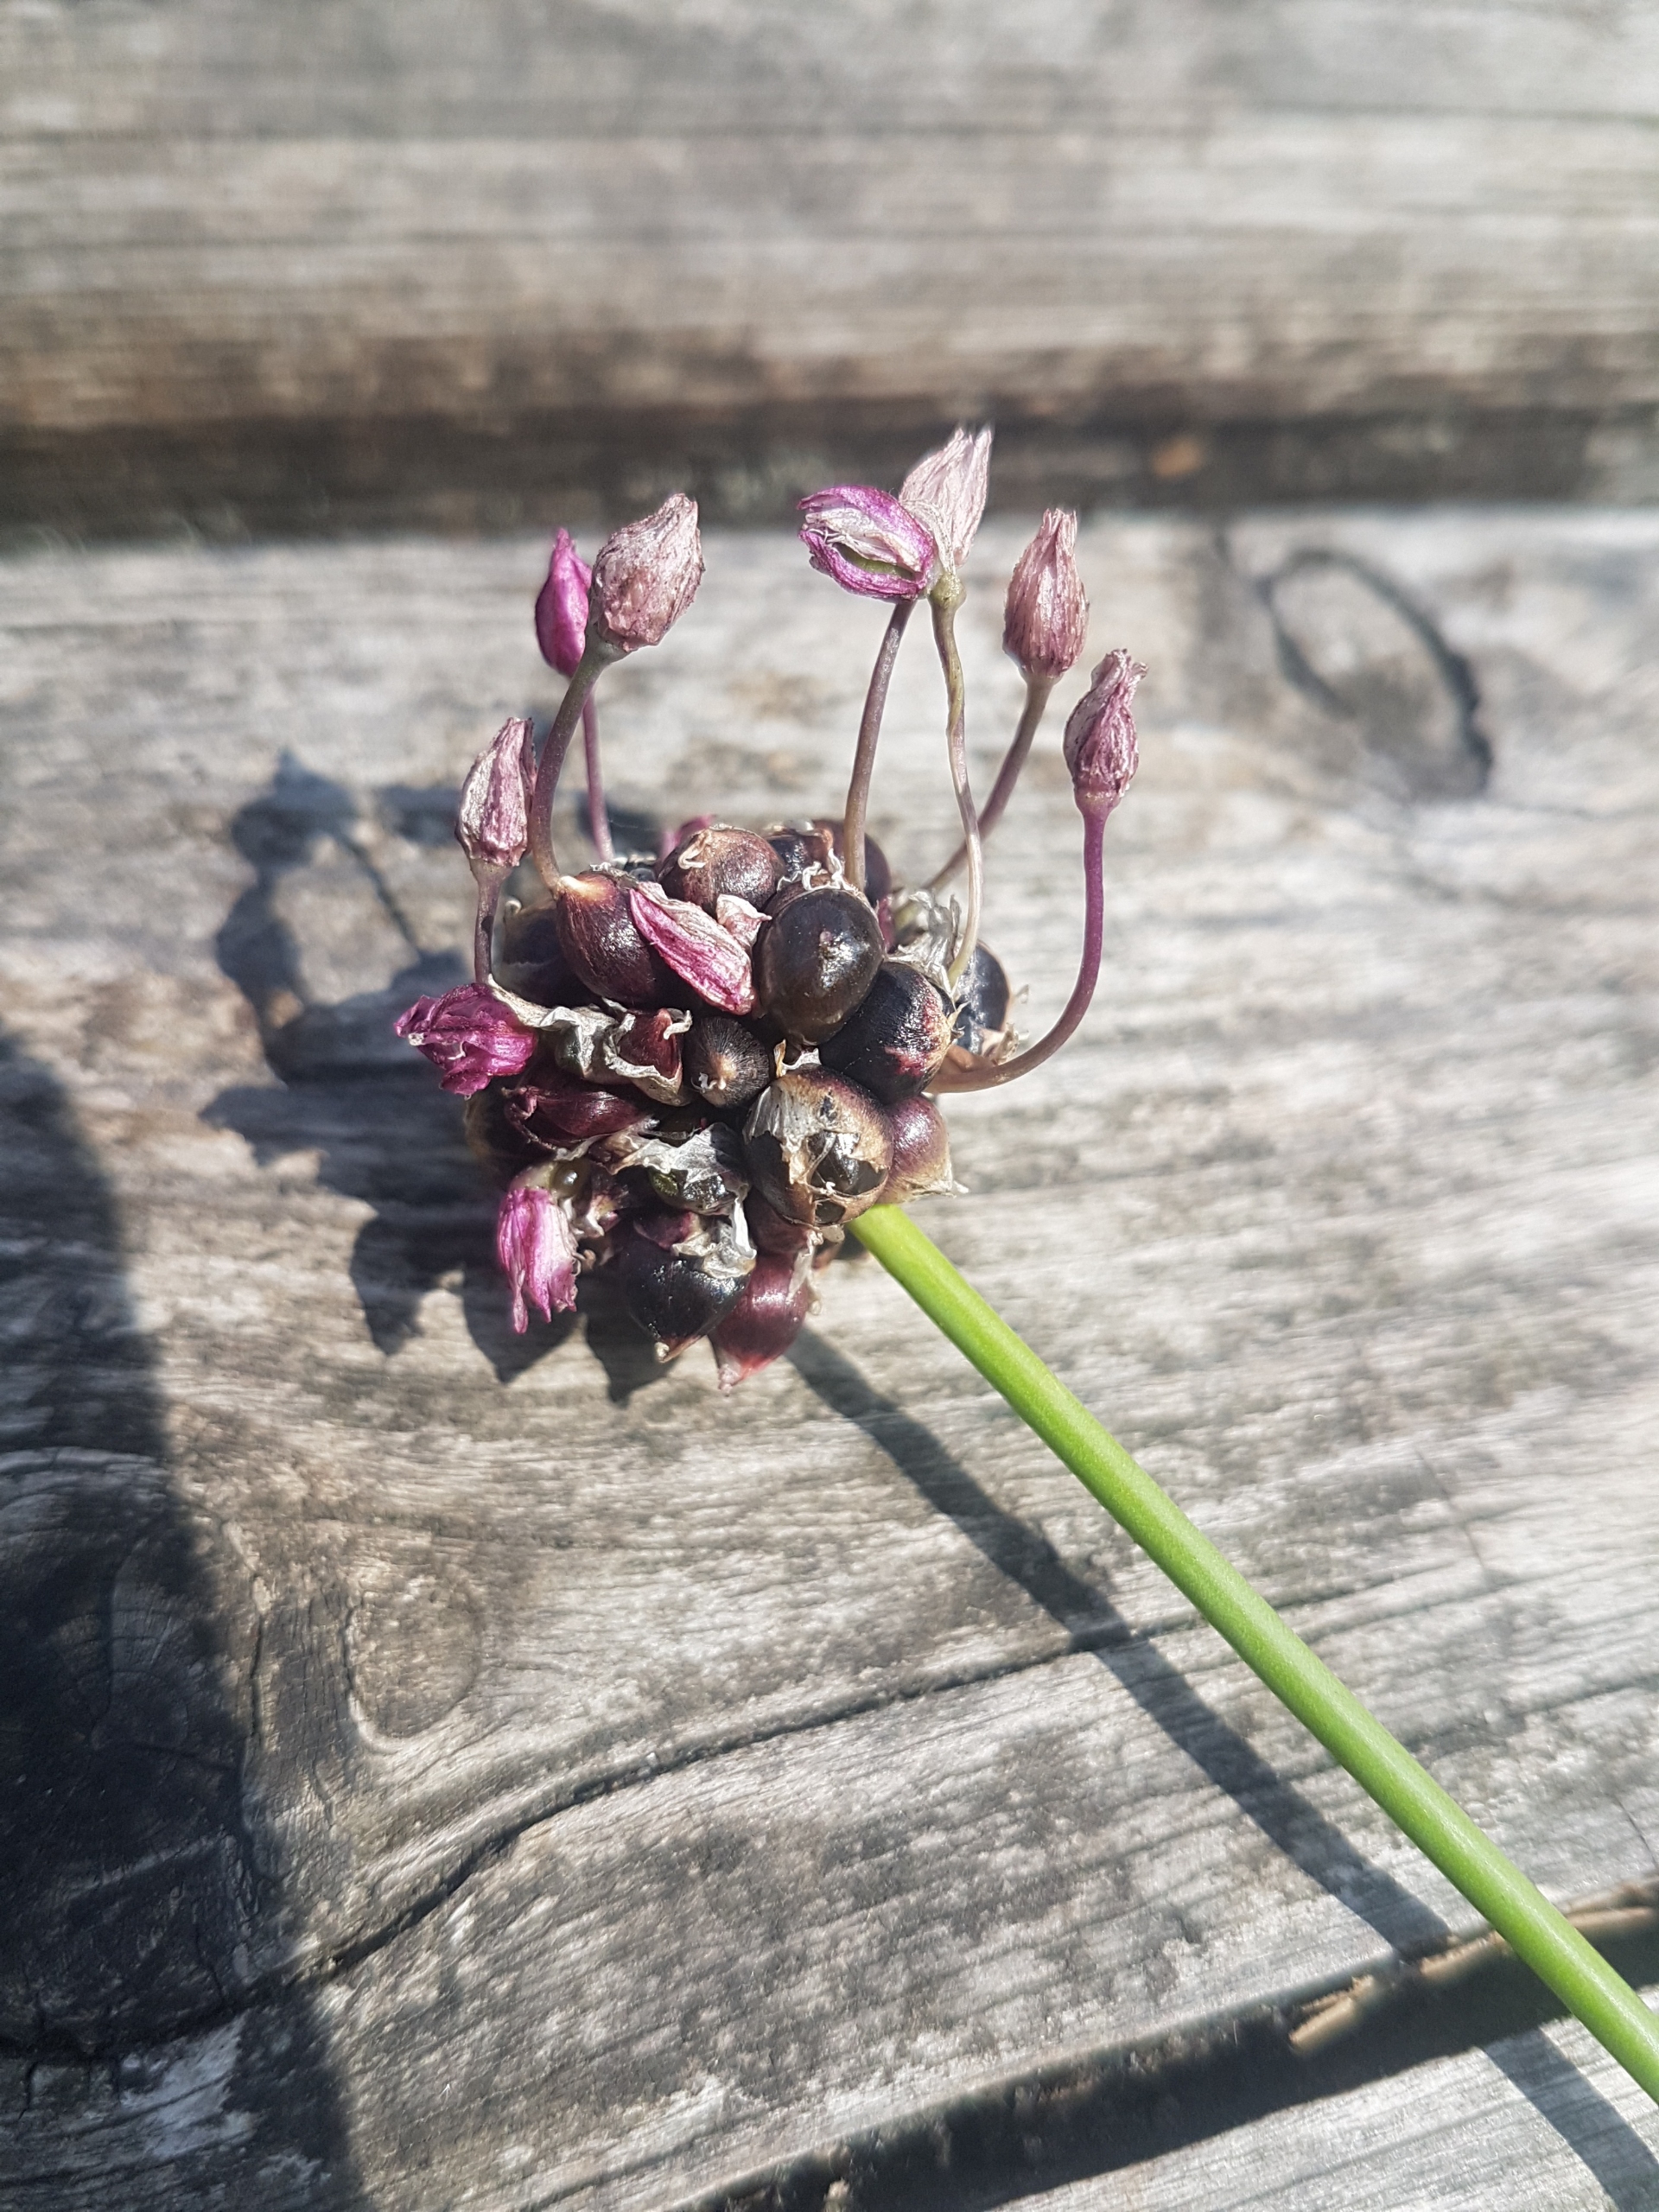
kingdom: Plantae
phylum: Tracheophyta
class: Liliopsida
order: Asparagales
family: Amaryllidaceae
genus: Allium
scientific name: Allium scorodoprasum
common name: Skov-løg
